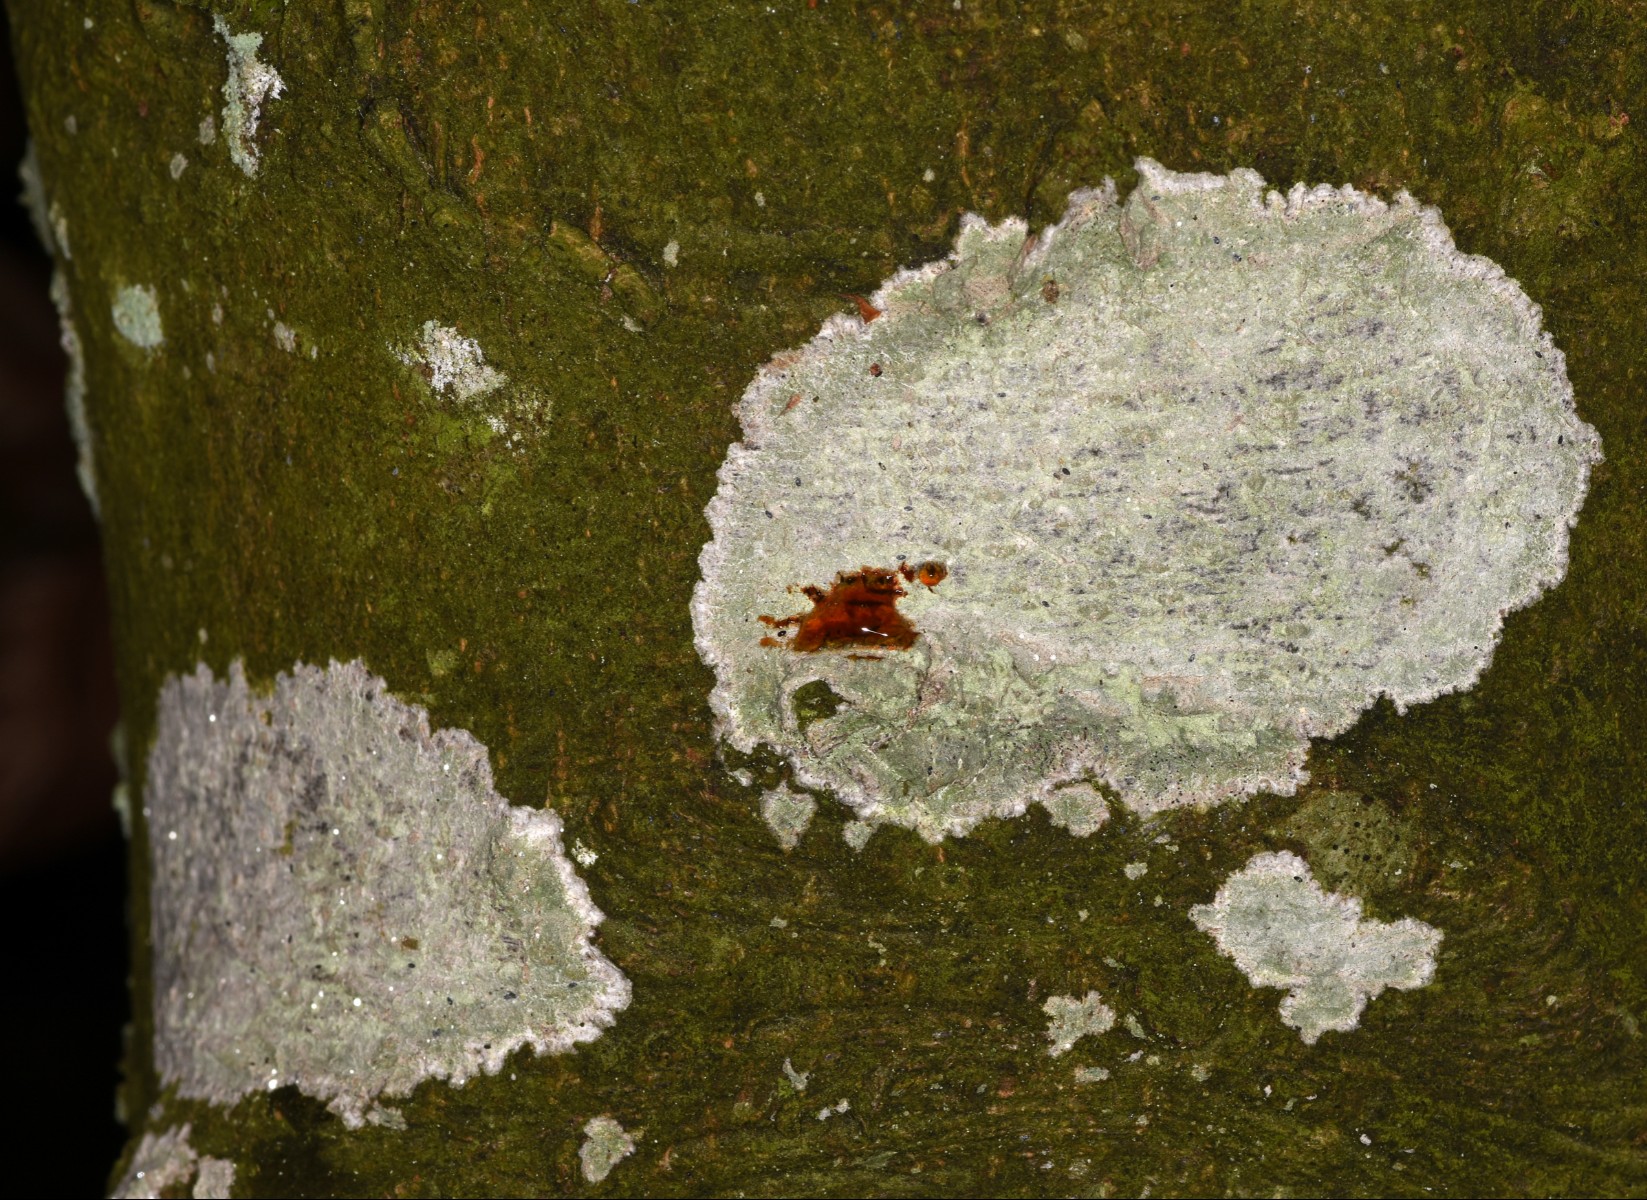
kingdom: Fungi
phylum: Ascomycota
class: Lecanoromycetes
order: Ostropales
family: Phlyctidaceae
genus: Phlyctis
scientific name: Phlyctis argena
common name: almindelig sølvlav
